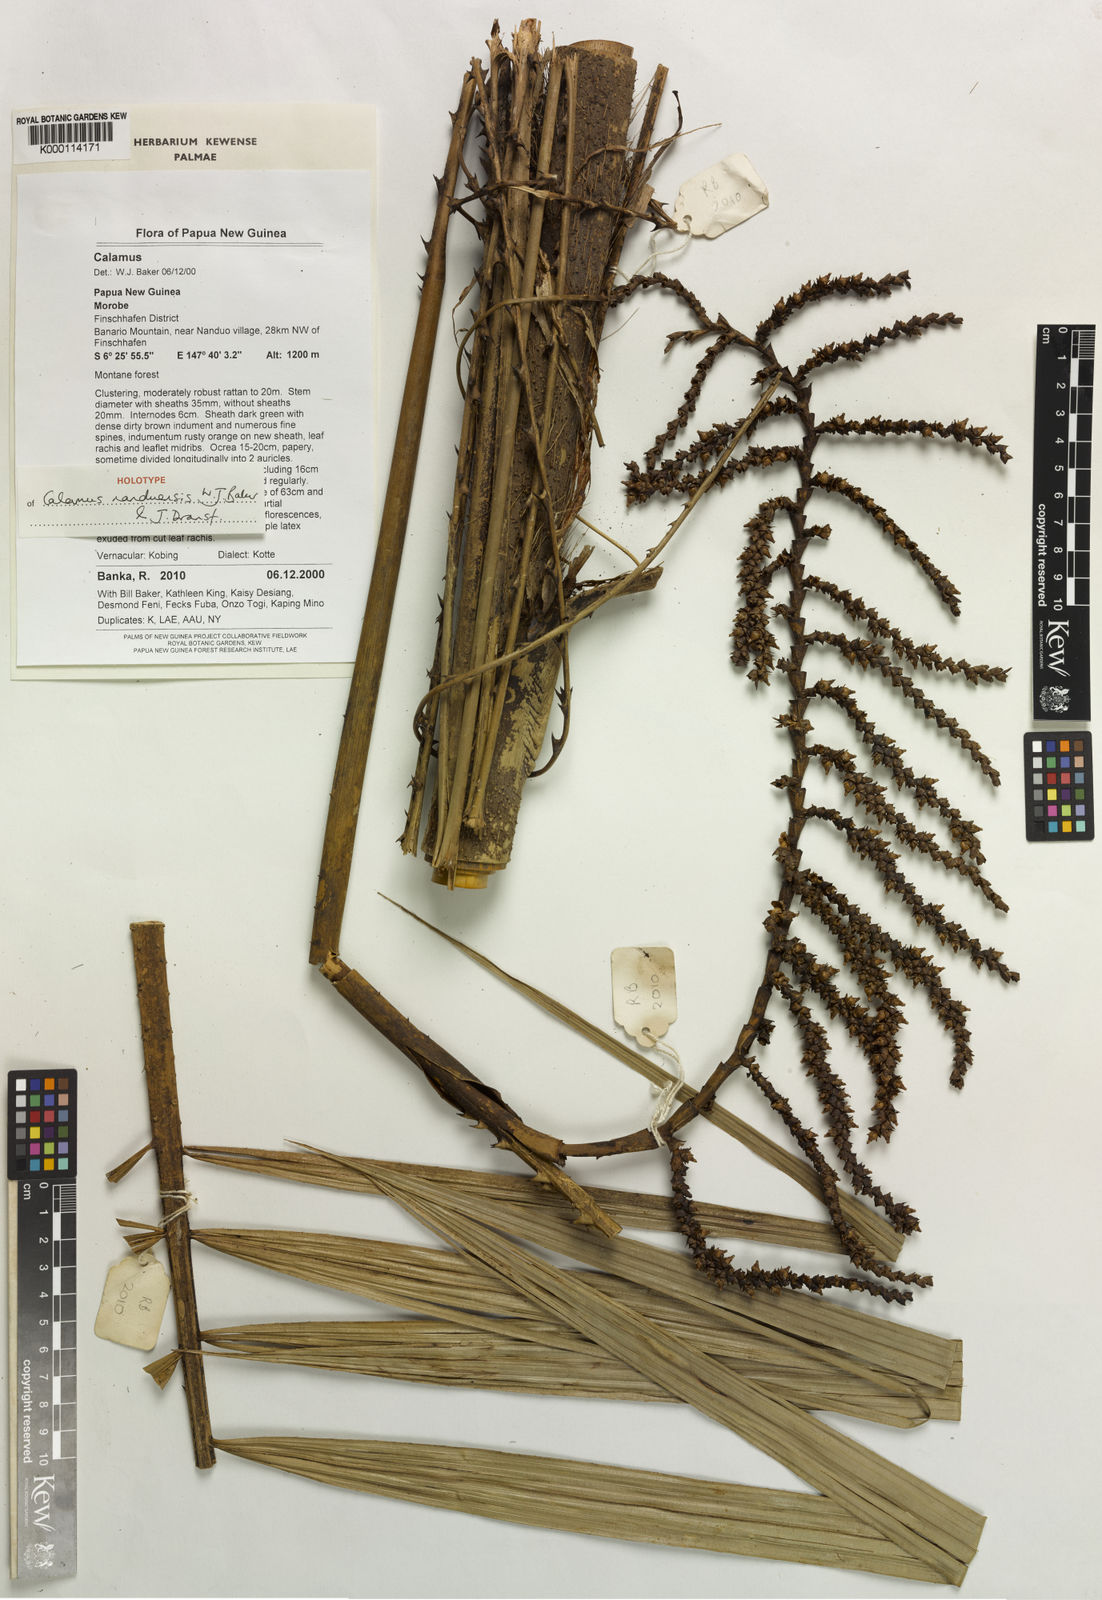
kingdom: Plantae
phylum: Tracheophyta
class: Liliopsida
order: Arecales
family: Arecaceae
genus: Calamus
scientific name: Calamus nanduensis
